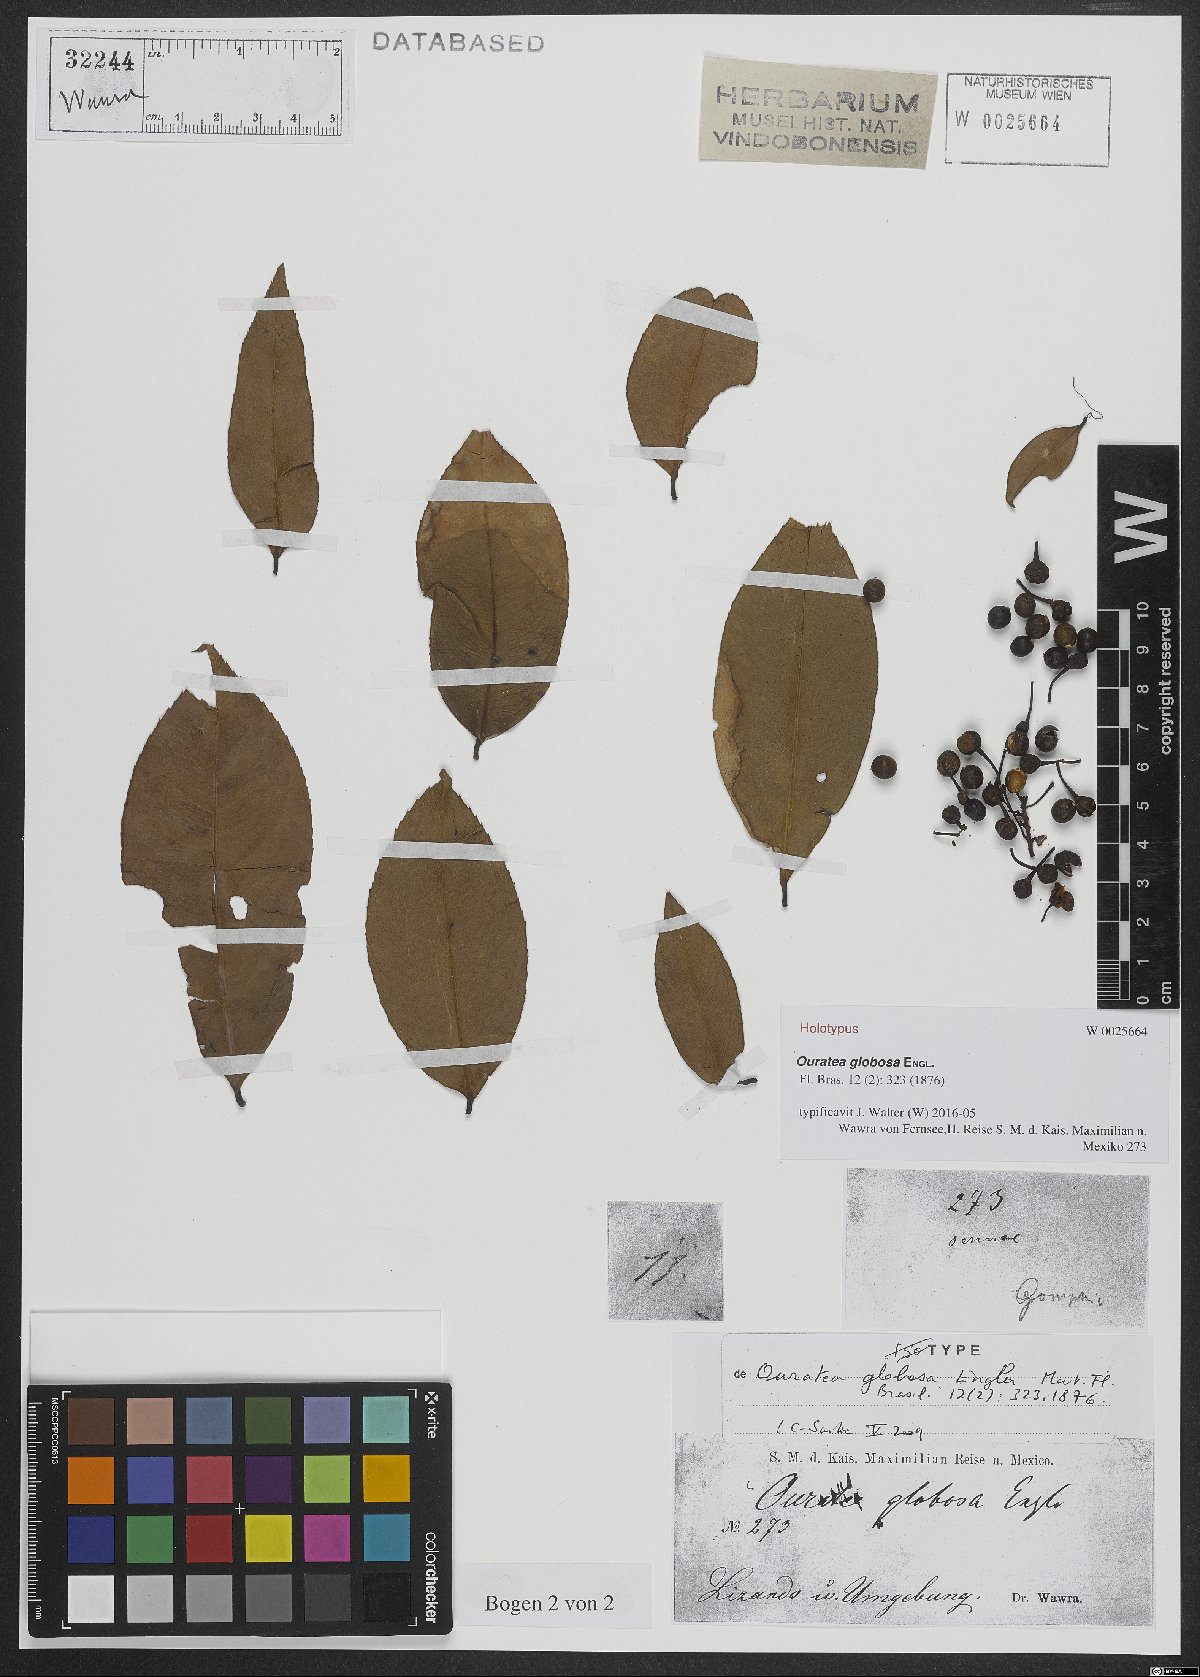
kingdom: Plantae
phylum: Tracheophyta
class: Magnoliopsida
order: Malpighiales
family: Ochnaceae
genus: Ouratea
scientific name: Ouratea globosa
